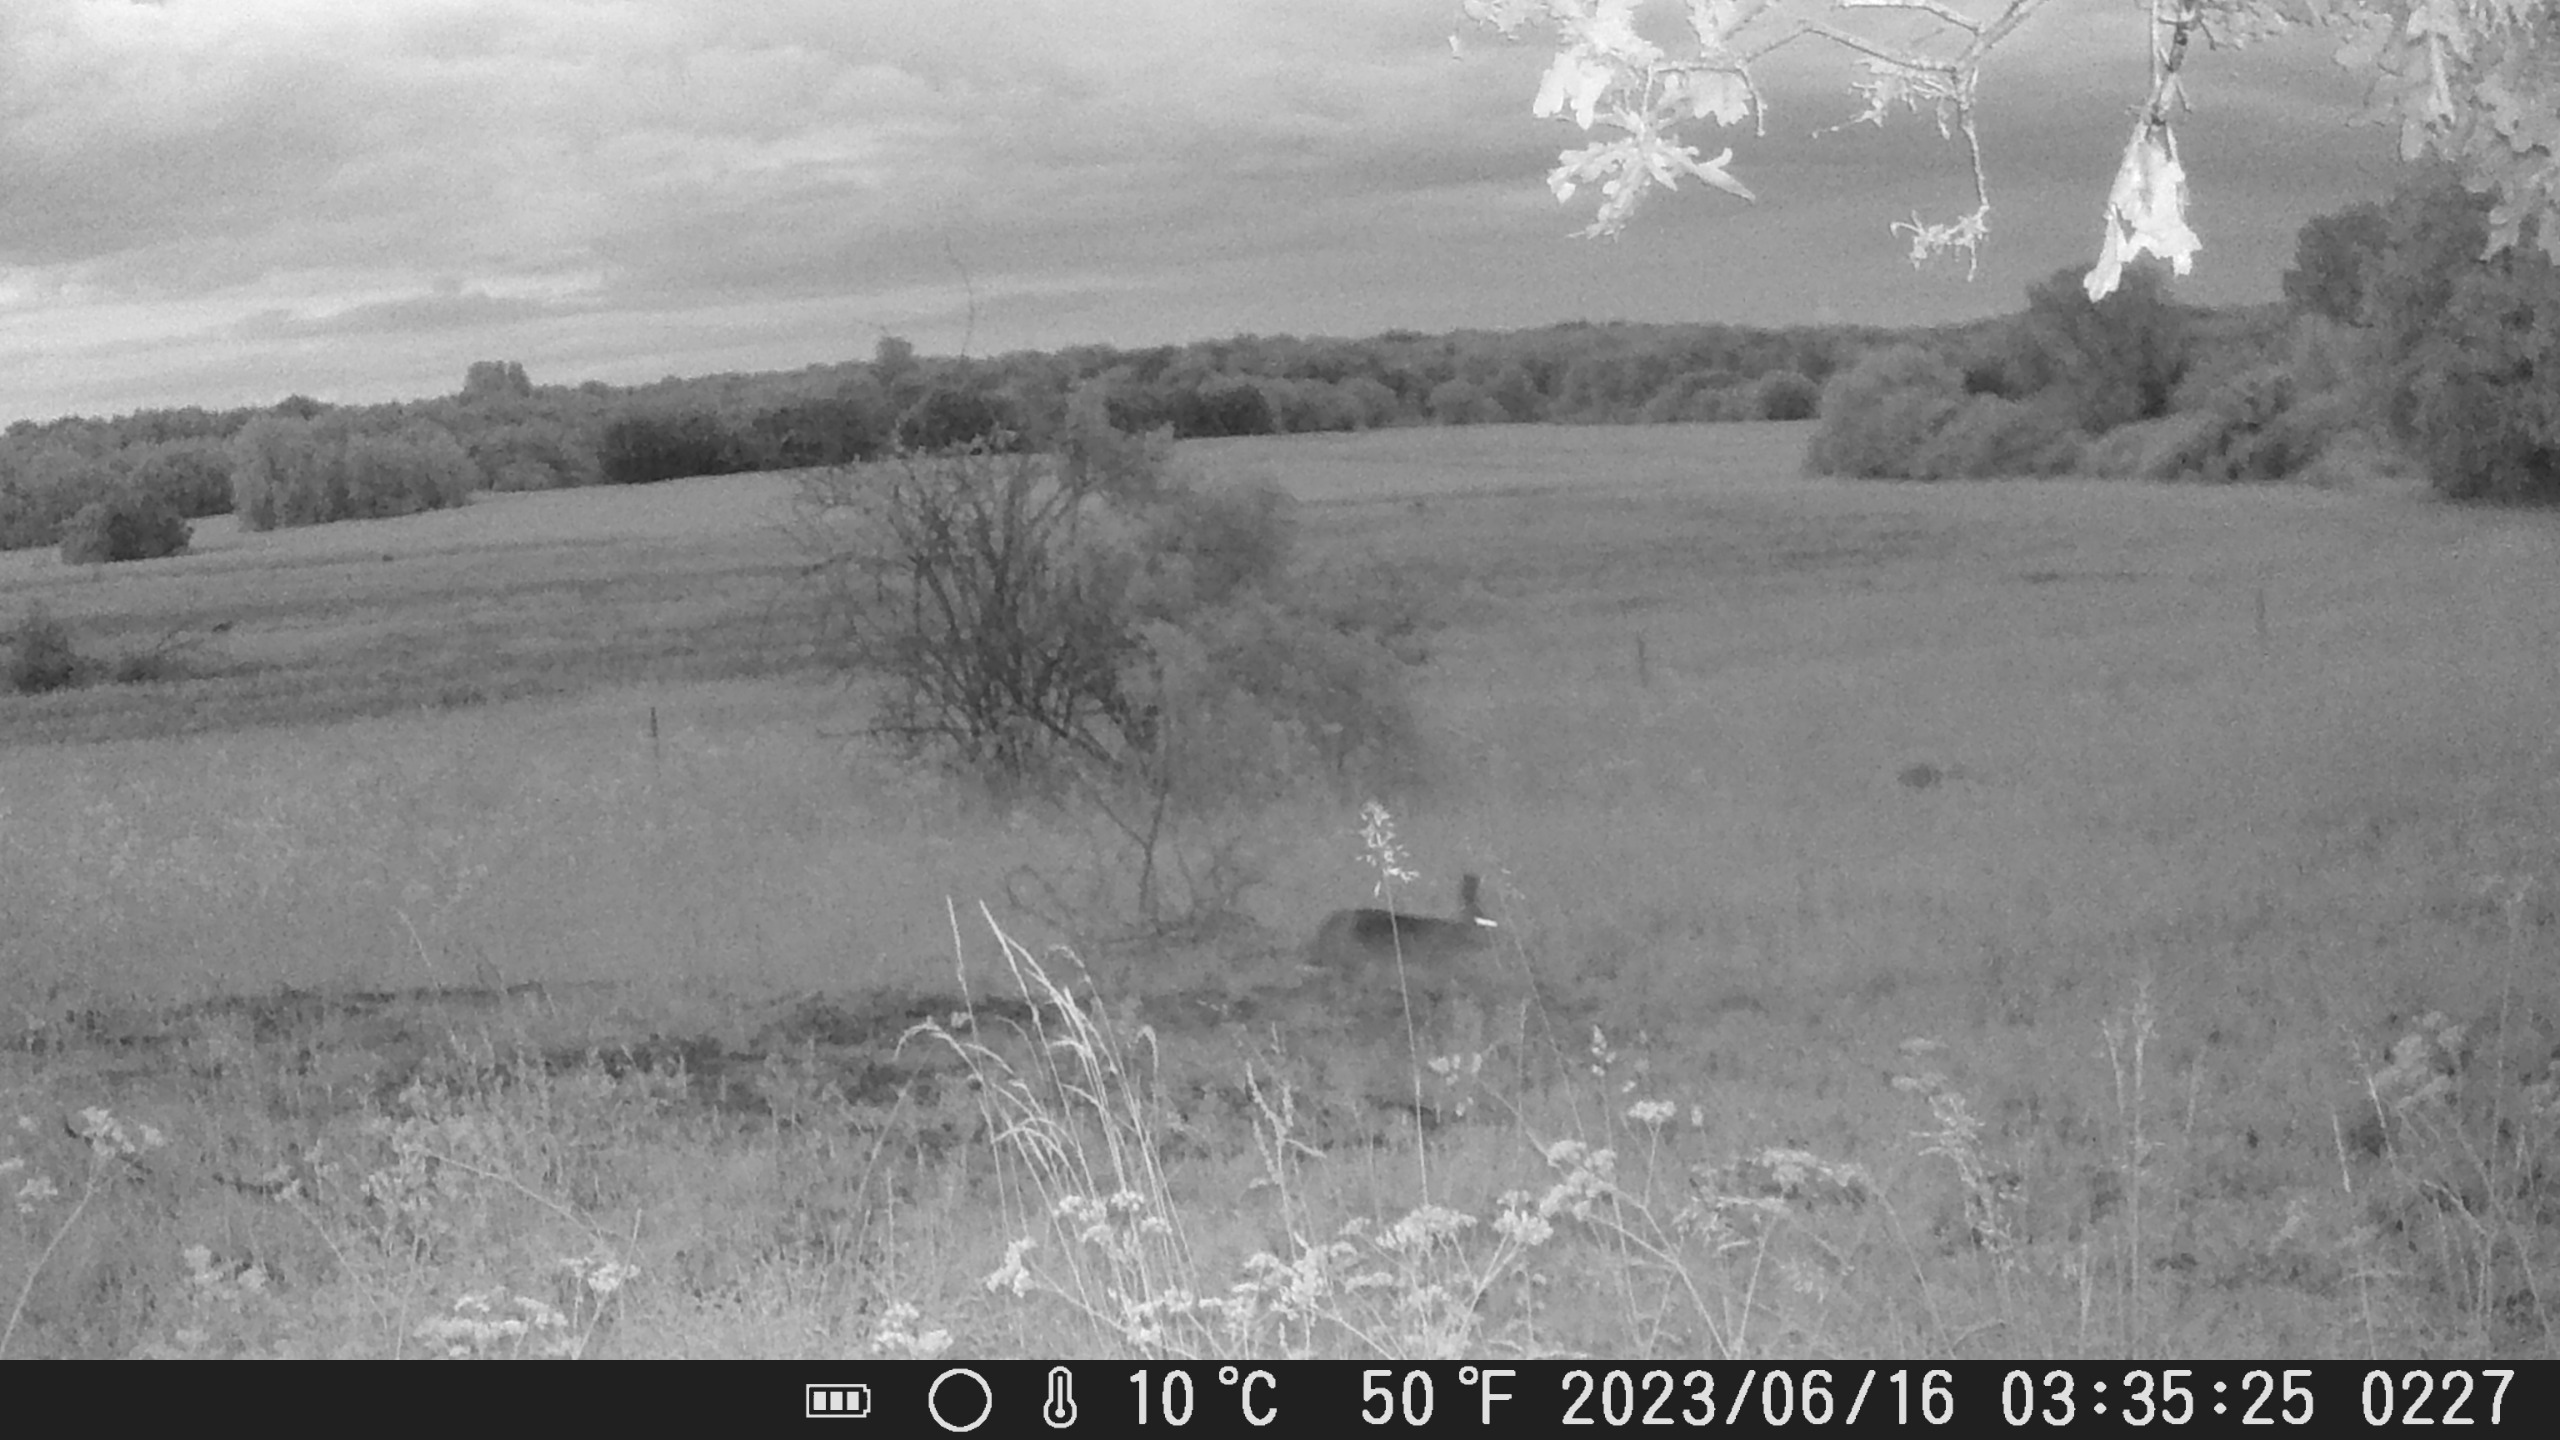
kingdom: Animalia
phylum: Chordata
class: Mammalia
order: Lagomorpha
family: Leporidae
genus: Lepus
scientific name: Lepus europaeus
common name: Hare
